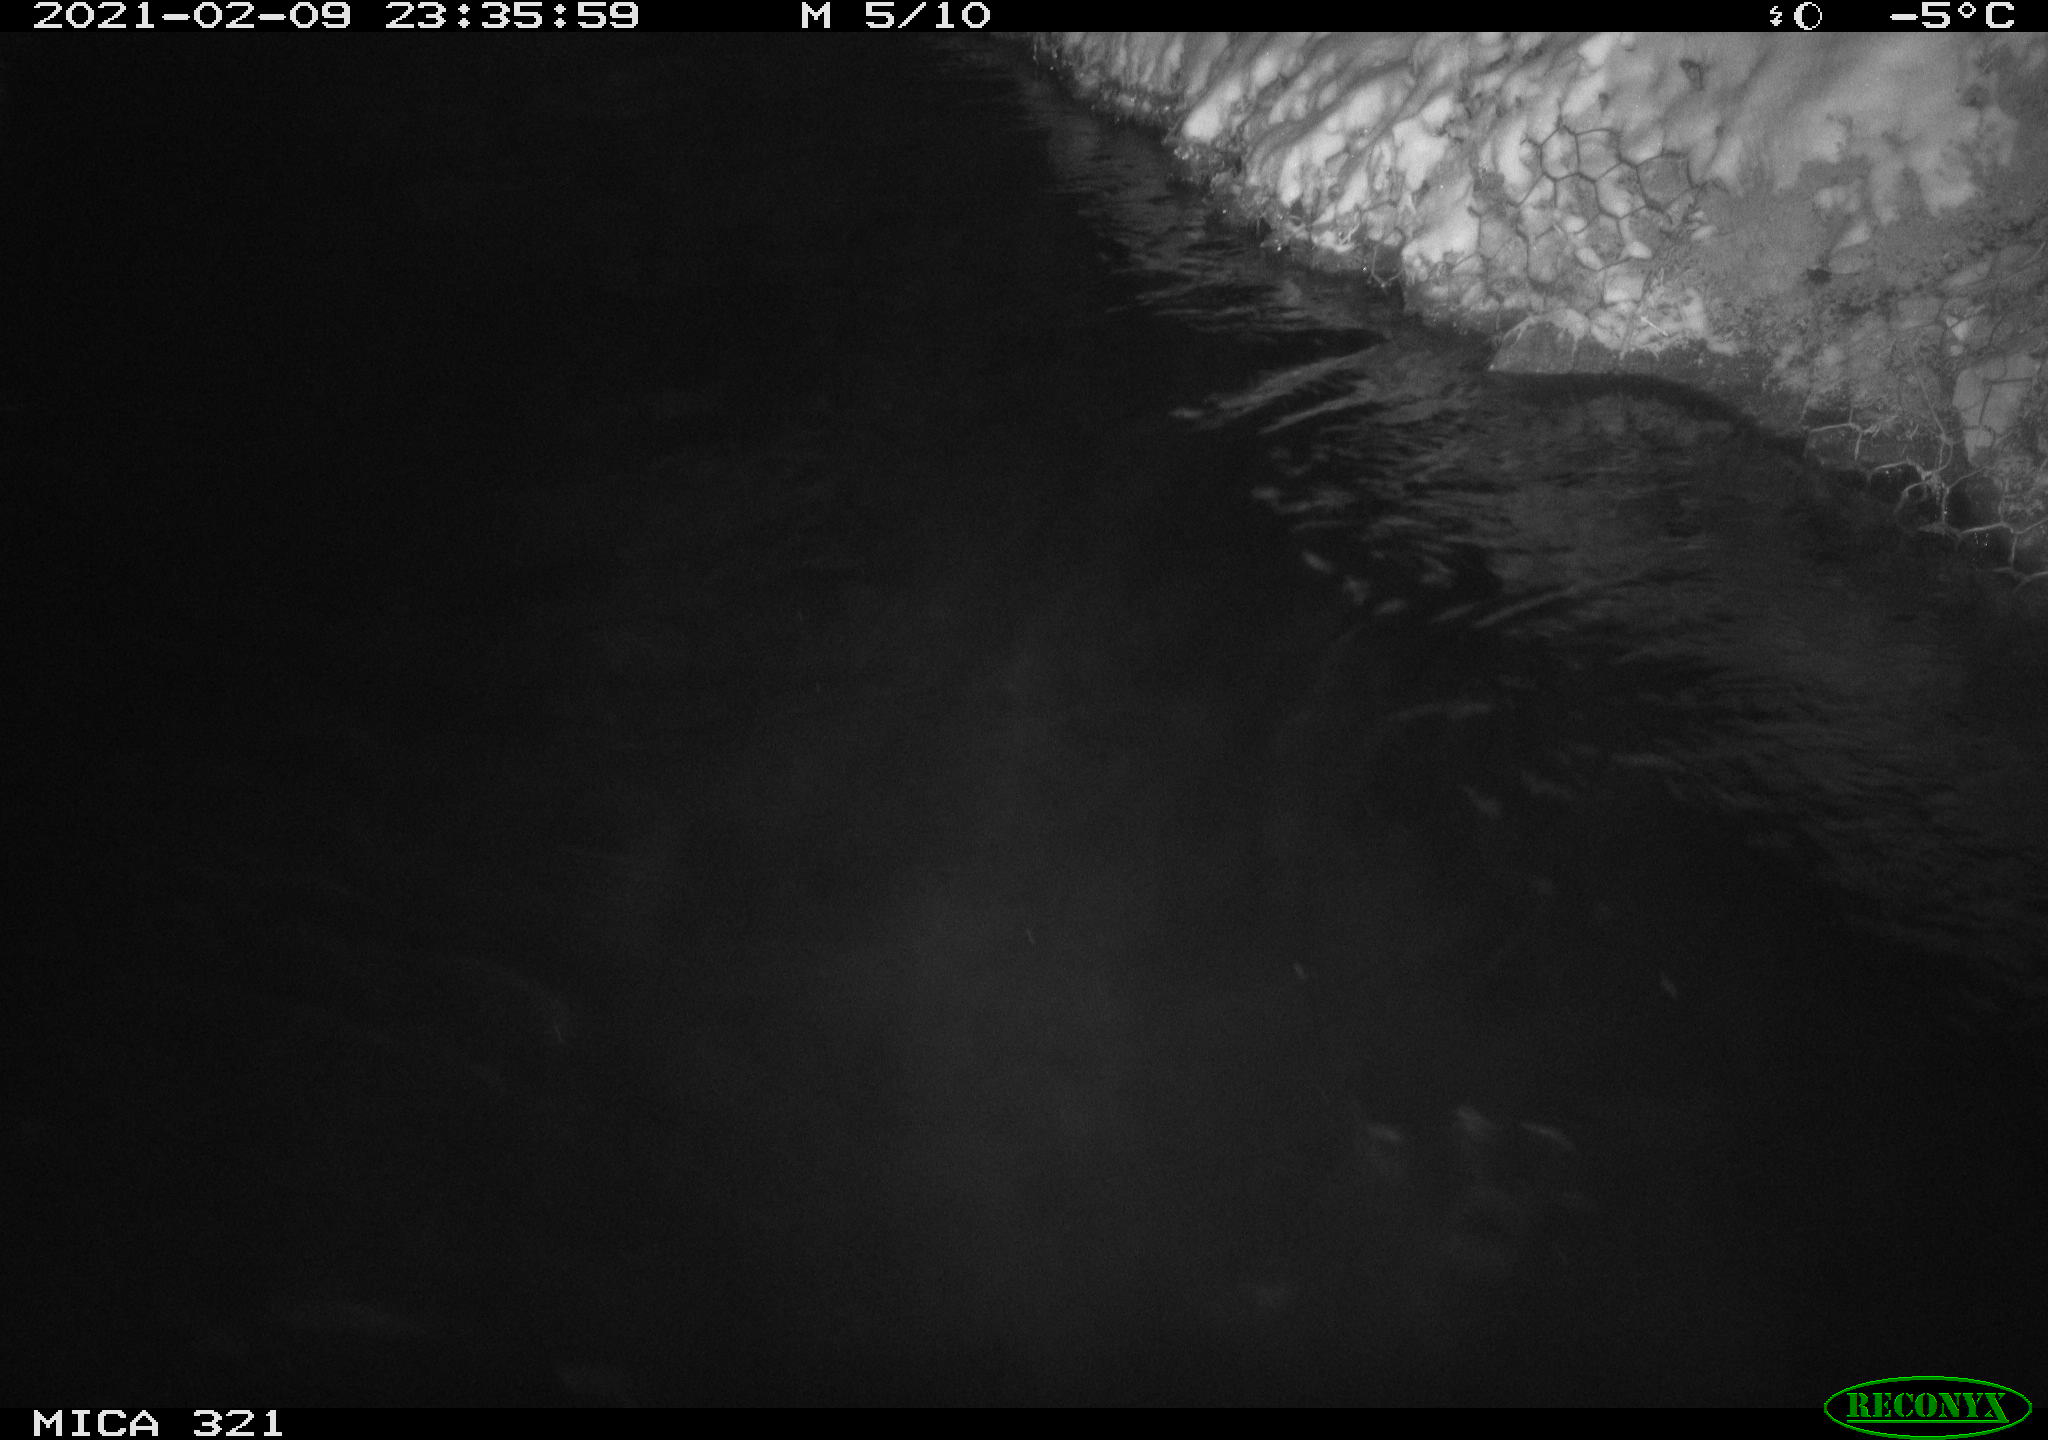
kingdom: Animalia
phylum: Chordata
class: Aves
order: Anseriformes
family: Anatidae
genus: Anas
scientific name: Anas platyrhynchos
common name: Mallard
